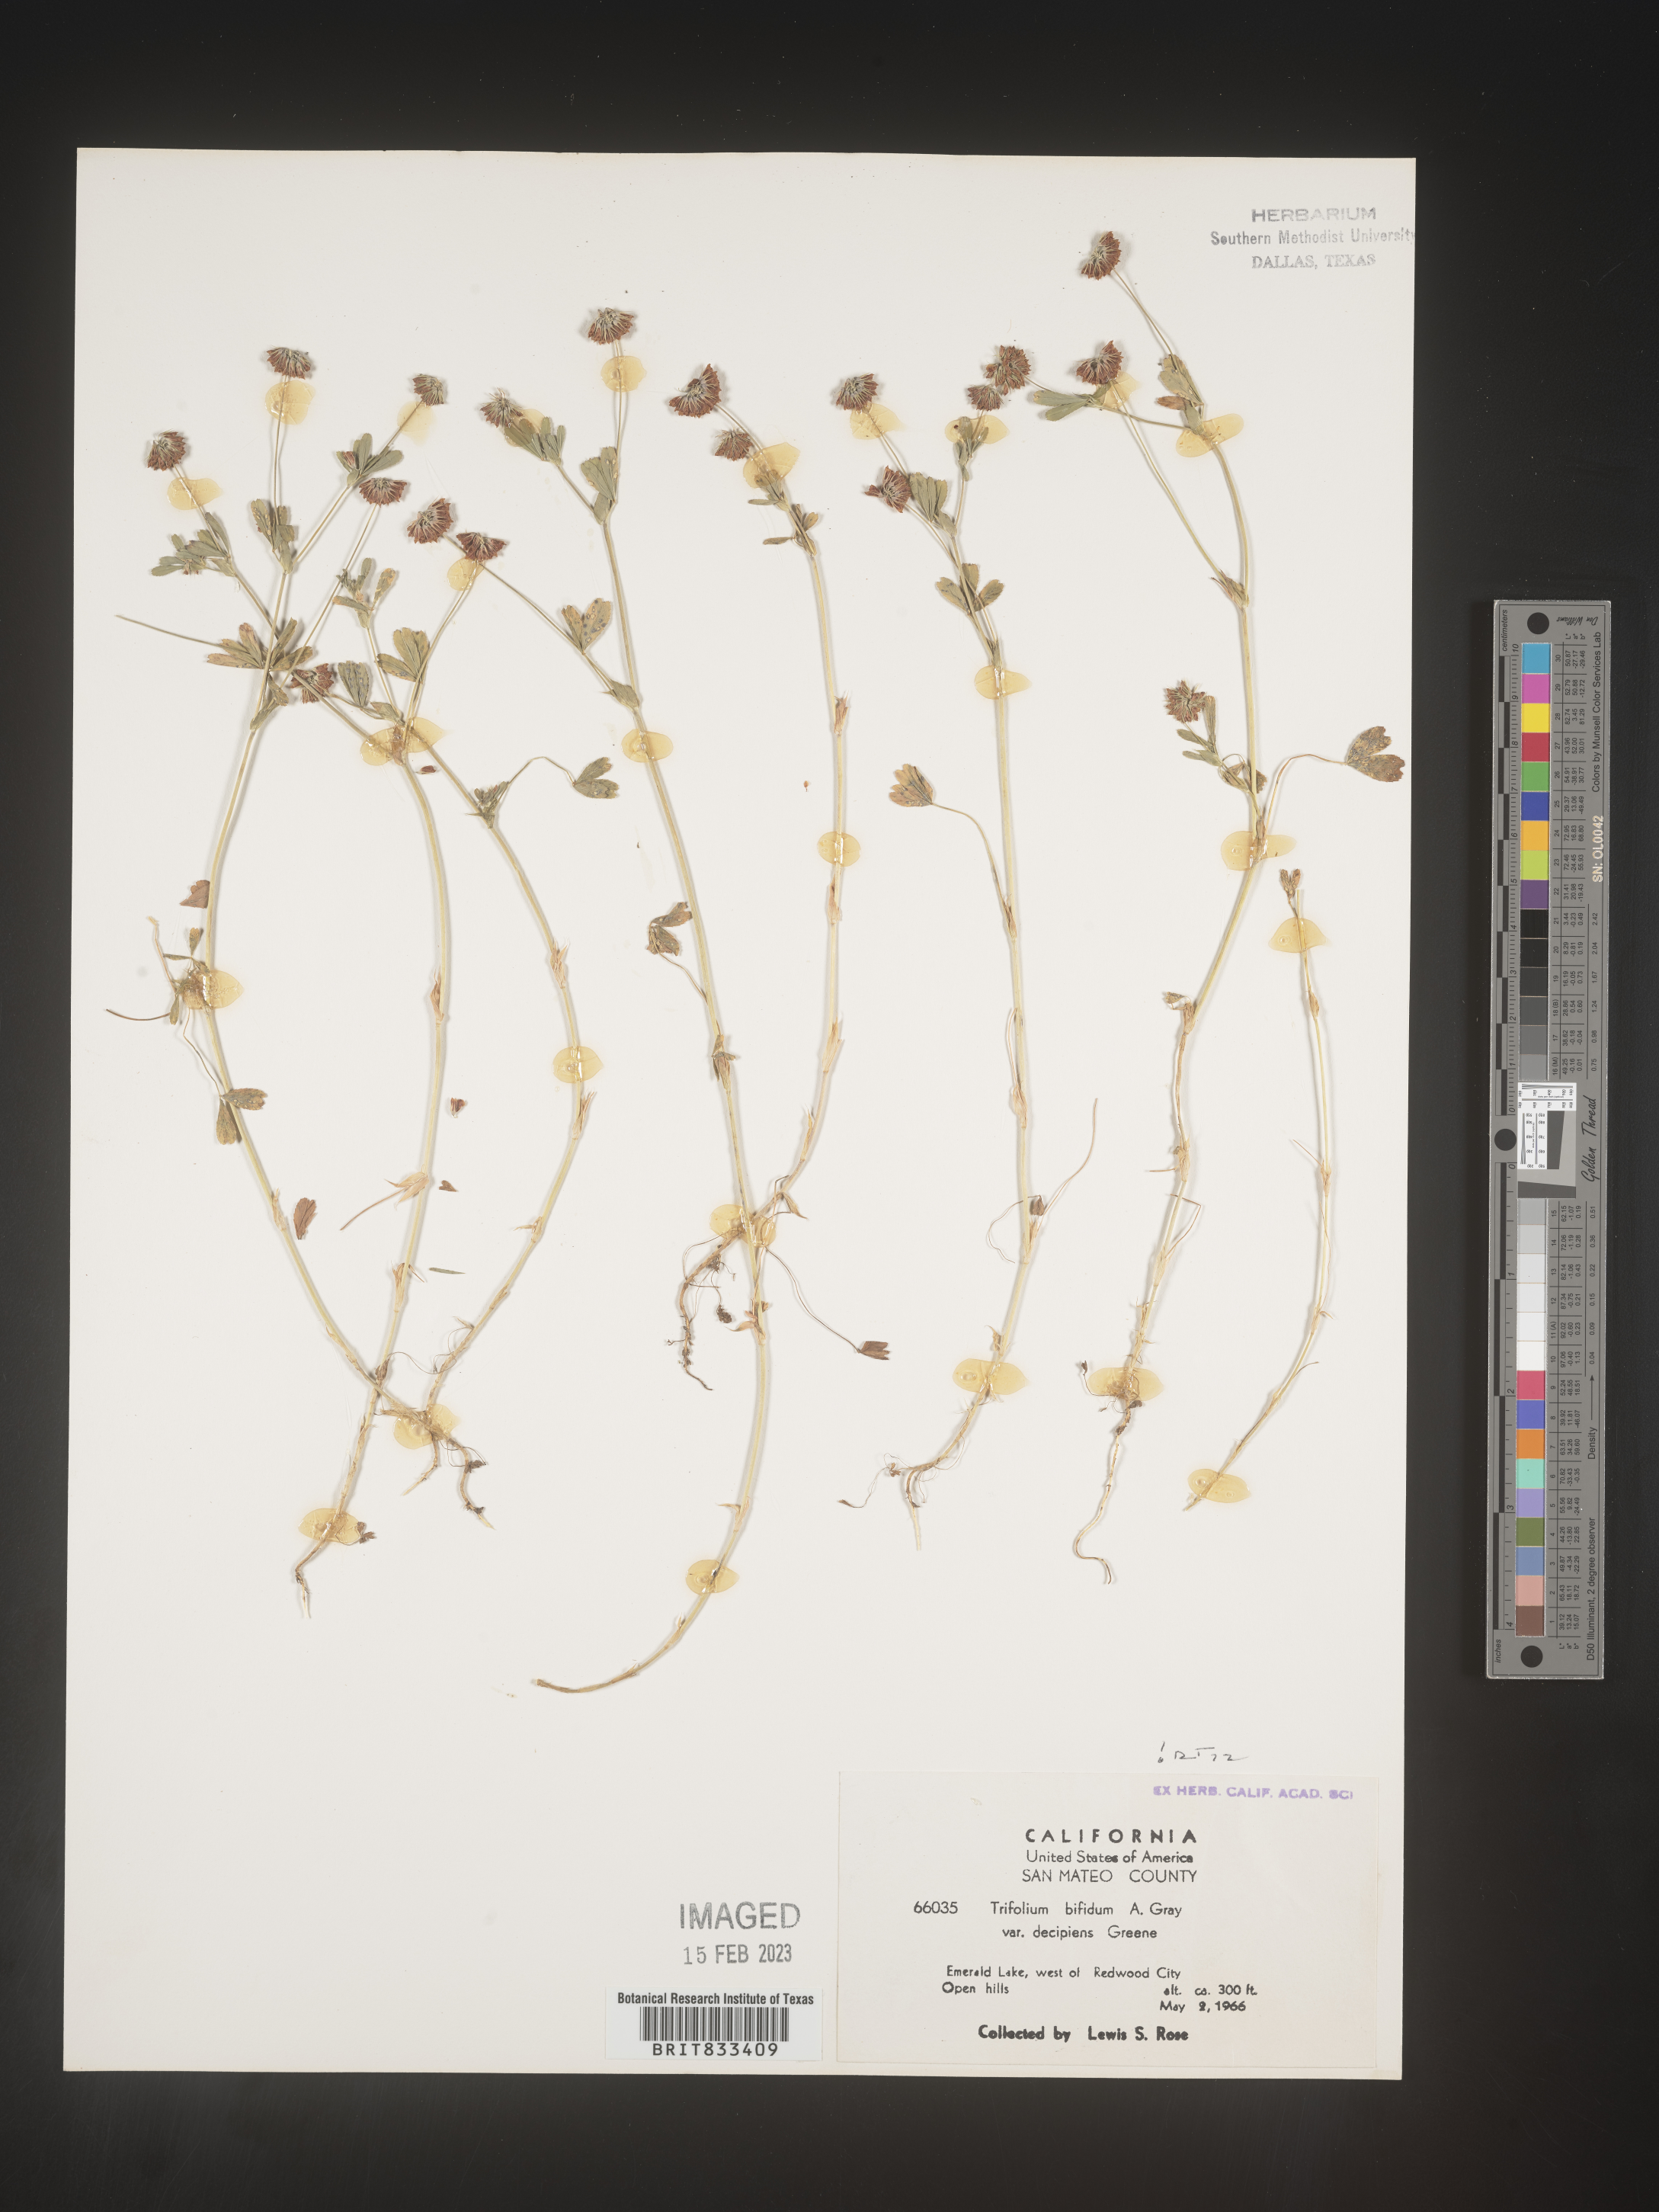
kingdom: Plantae
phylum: Tracheophyta
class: Magnoliopsida
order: Fabales
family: Fabaceae
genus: Trifolium
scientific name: Trifolium
